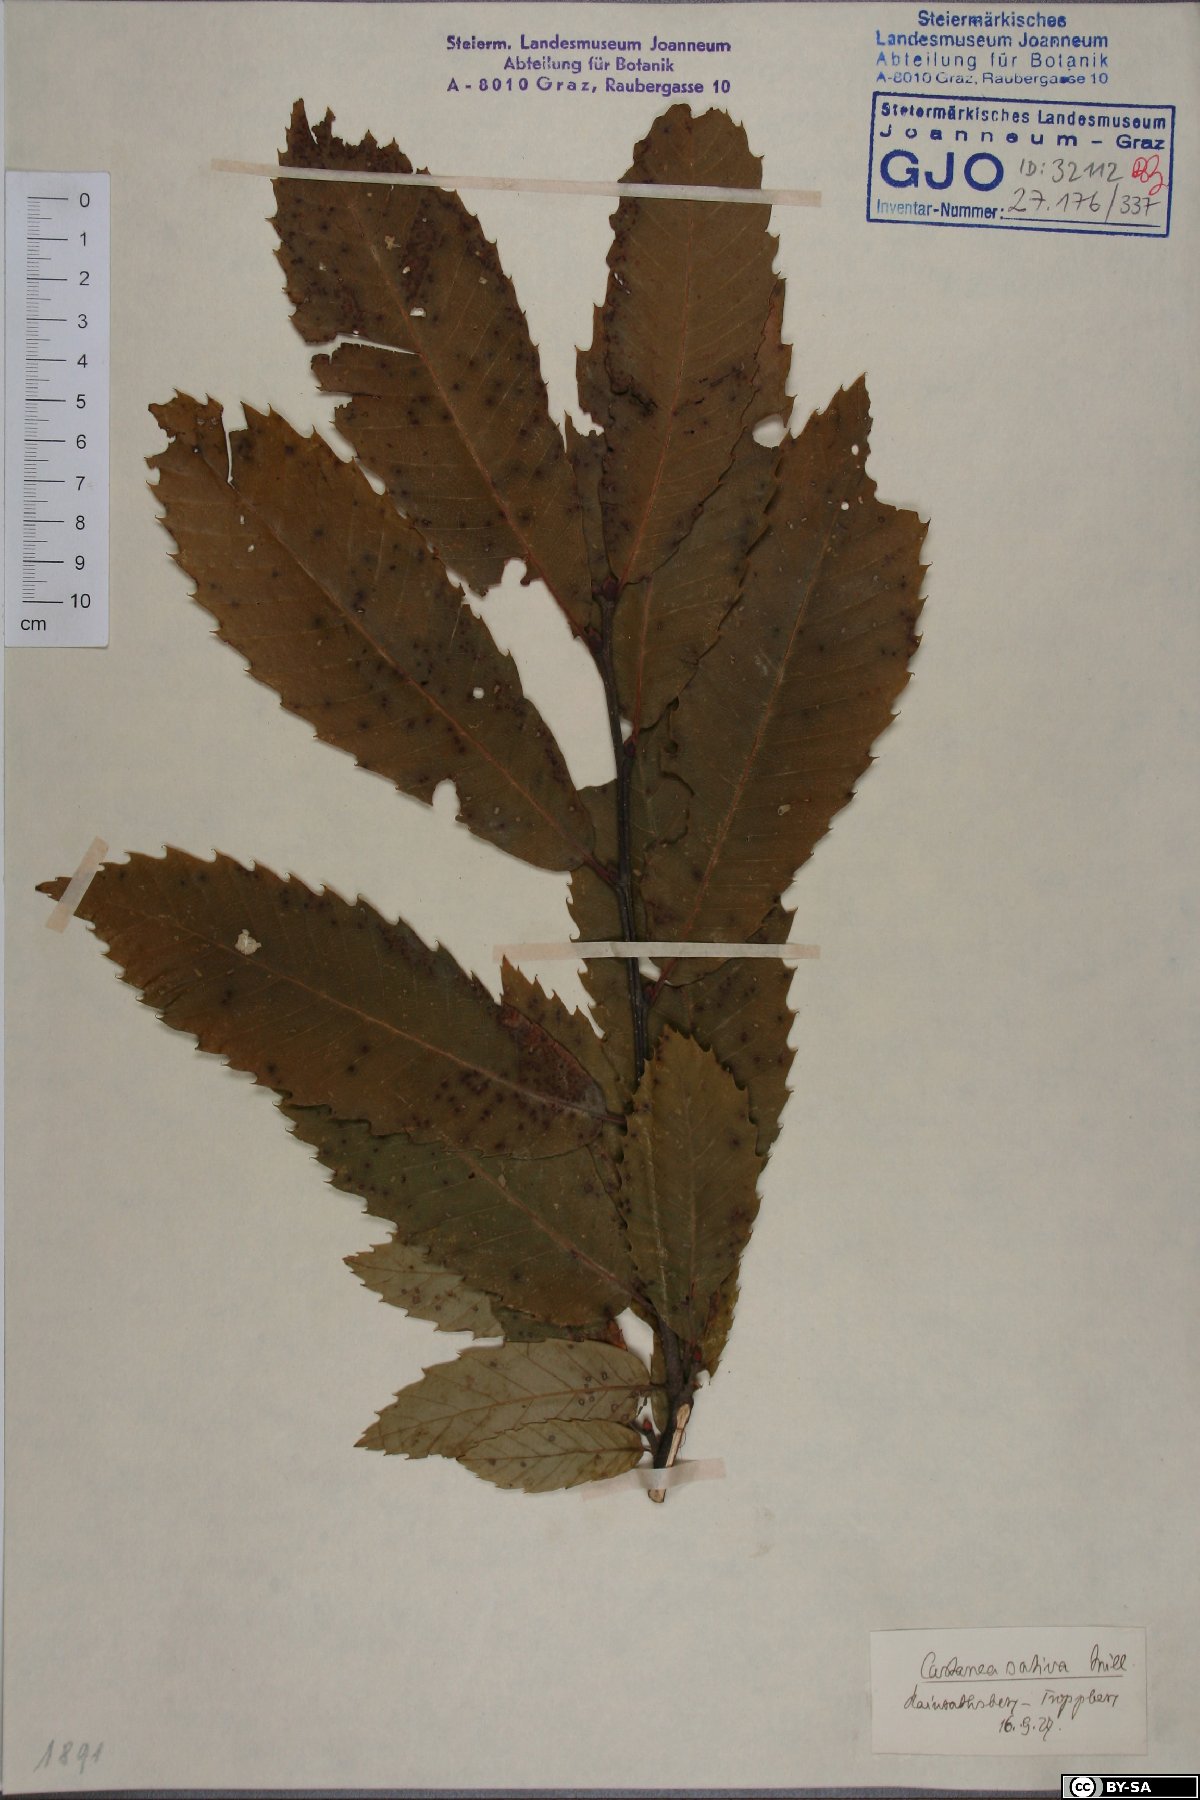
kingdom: Plantae
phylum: Tracheophyta
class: Magnoliopsida
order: Fagales
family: Fagaceae
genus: Castanea
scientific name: Castanea sativa
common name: Sweet chestnut
